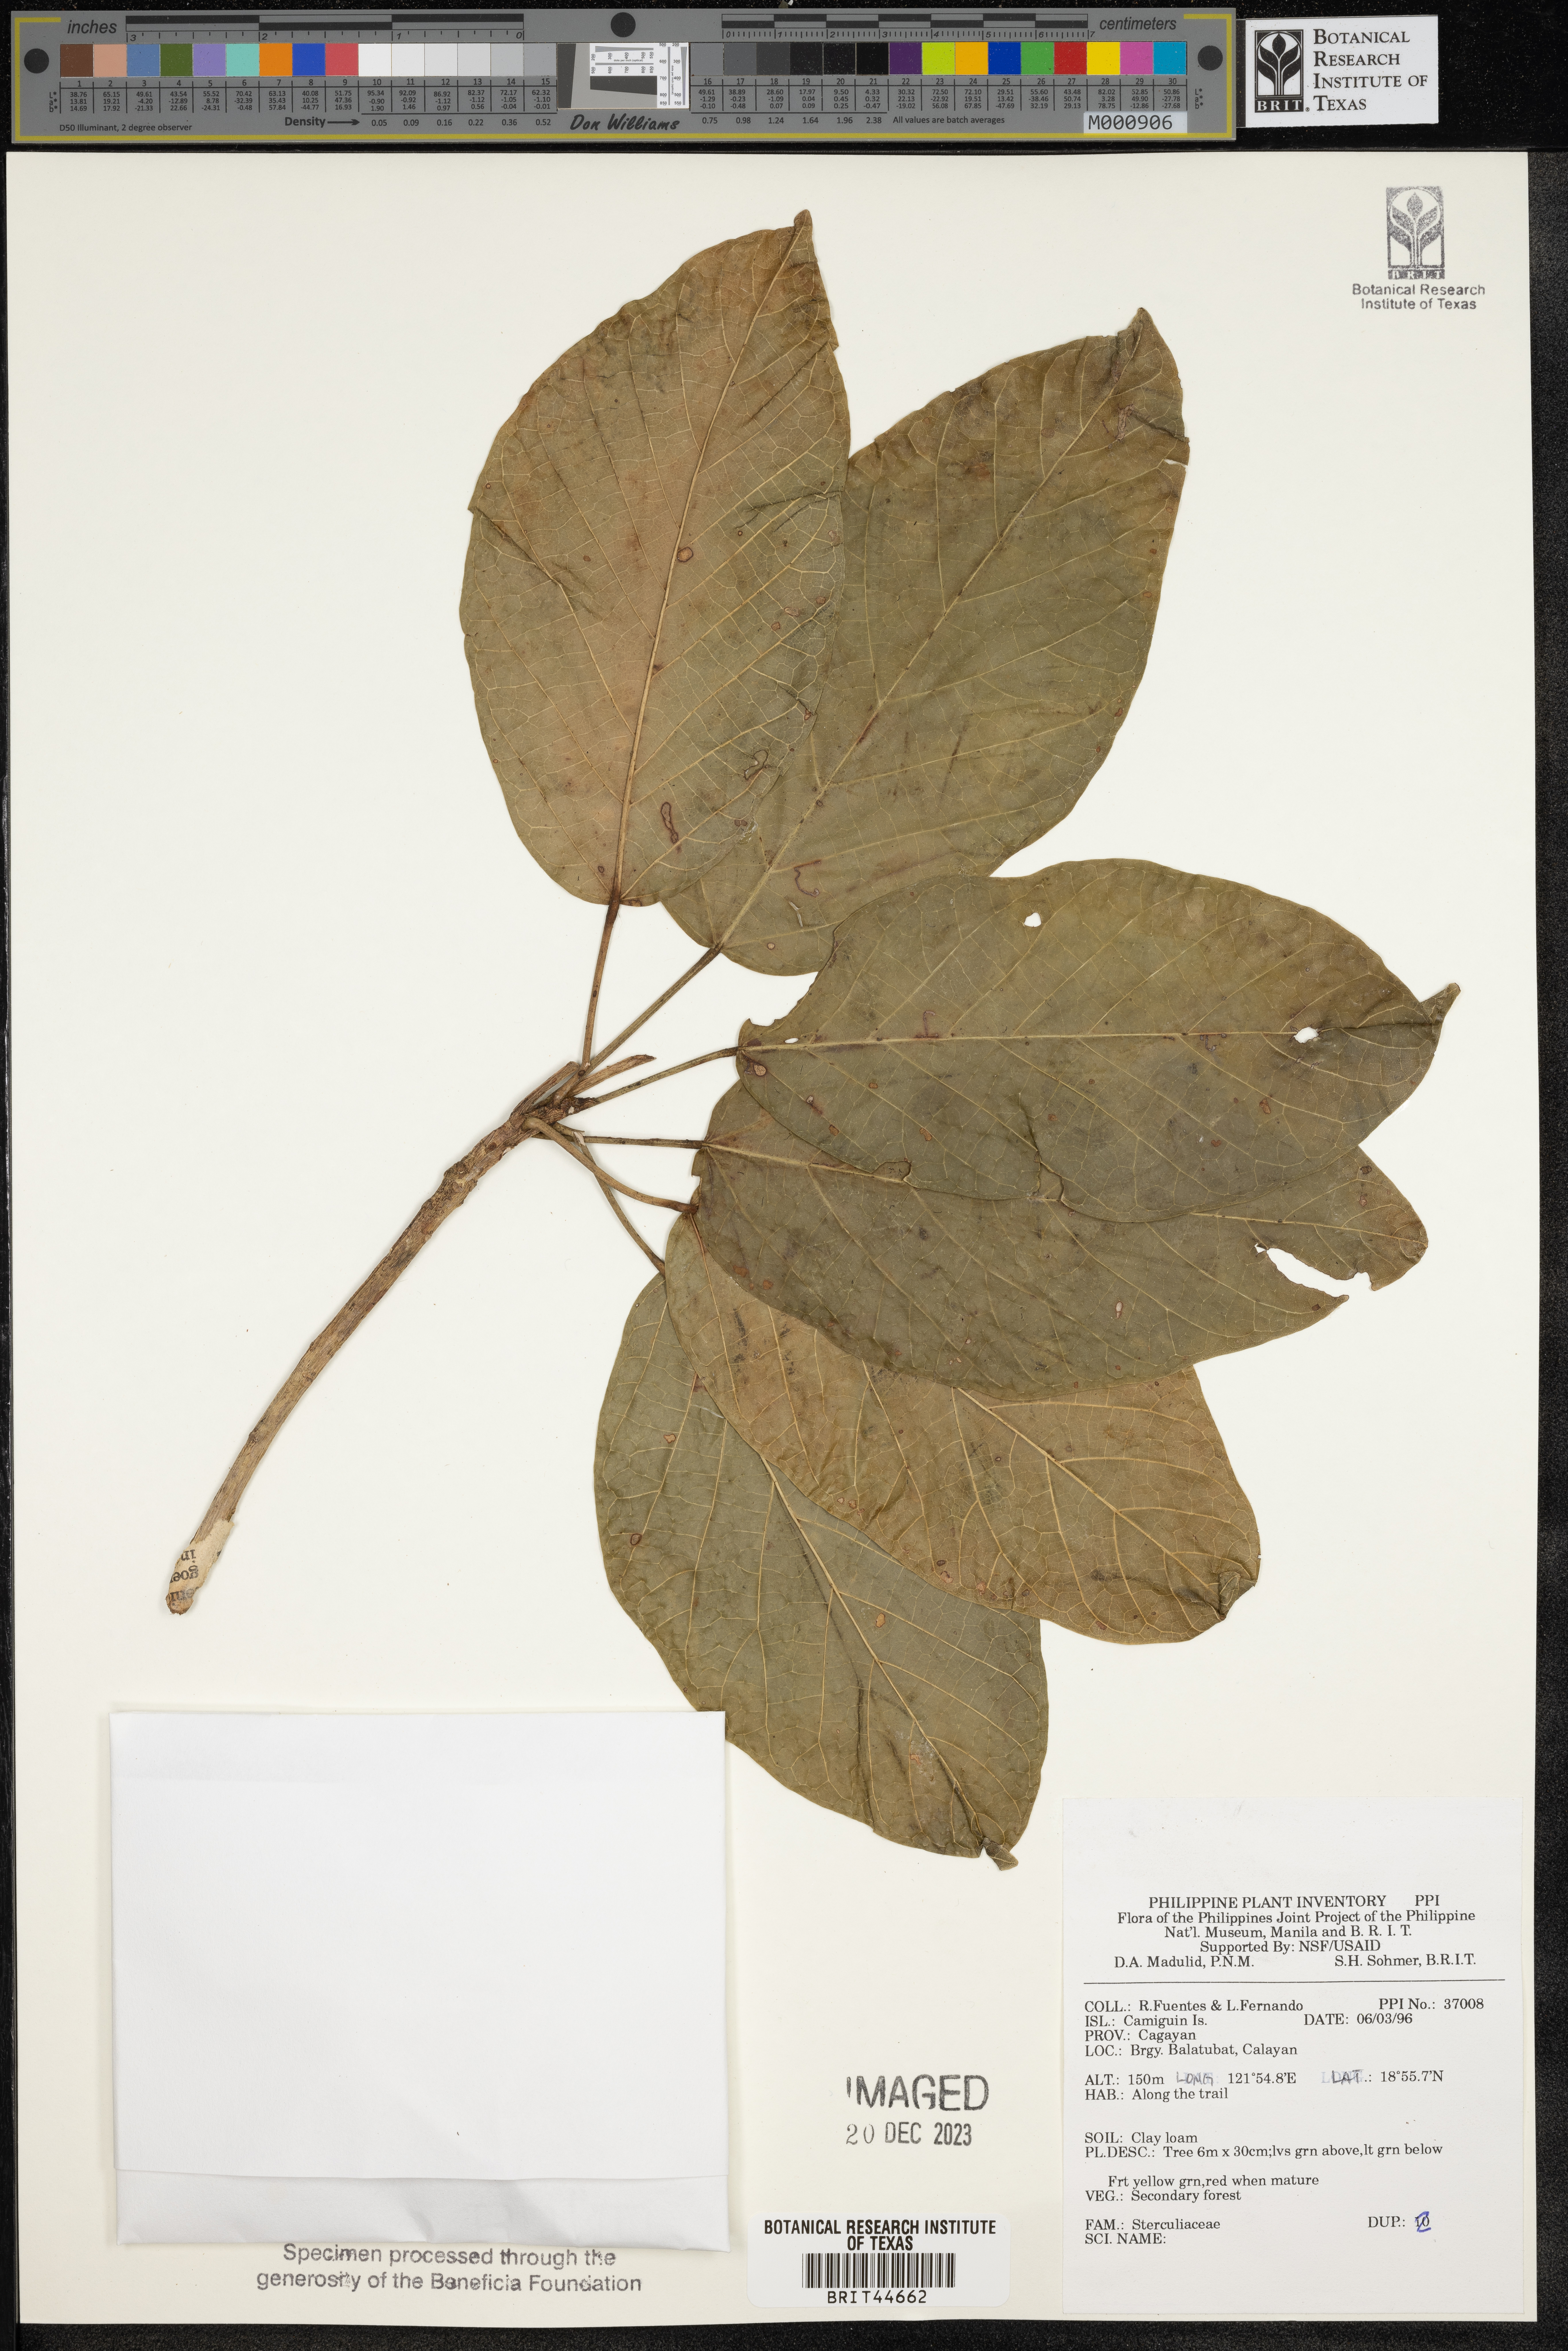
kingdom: Plantae
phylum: Tracheophyta
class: Magnoliopsida
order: Malvales
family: Sterculiaceae
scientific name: Sterculiaceae
